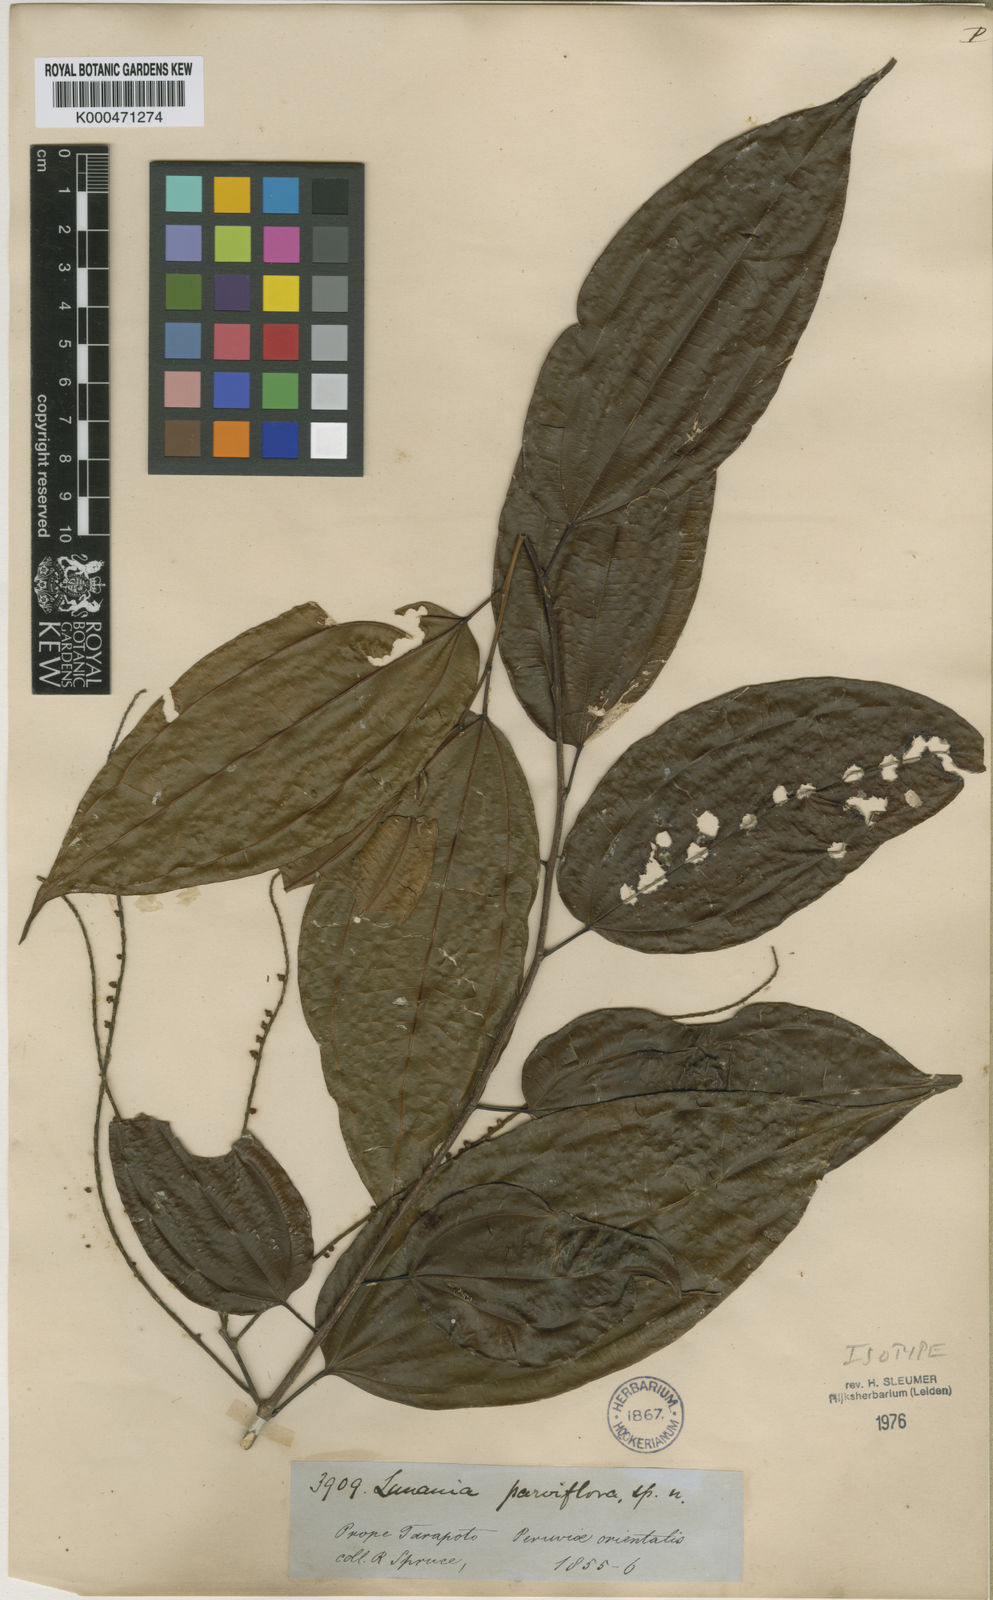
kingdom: Plantae
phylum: Tracheophyta
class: Magnoliopsida
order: Malpighiales
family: Salicaceae
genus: Lunania
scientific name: Lunania parviflora
